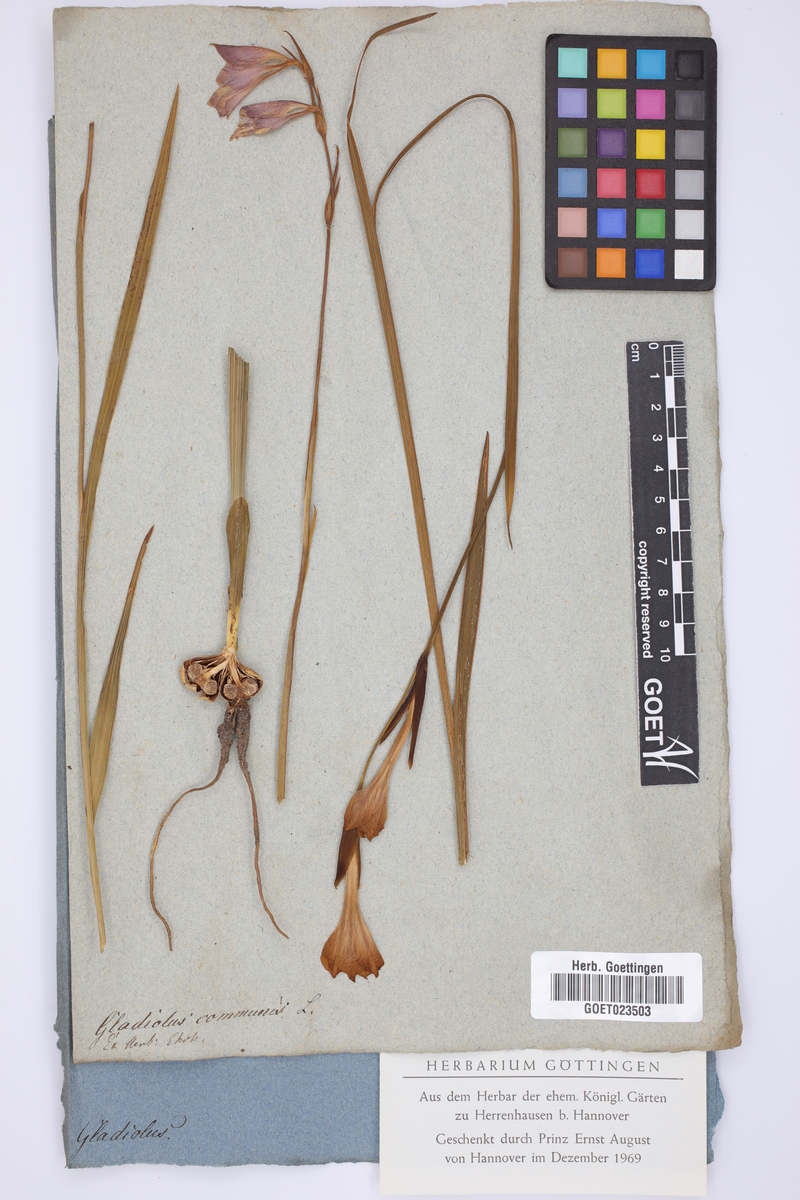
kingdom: Plantae
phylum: Tracheophyta
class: Liliopsida
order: Asparagales
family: Iridaceae
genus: Gladiolus
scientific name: Gladiolus communis
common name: Eastern gladiolus
